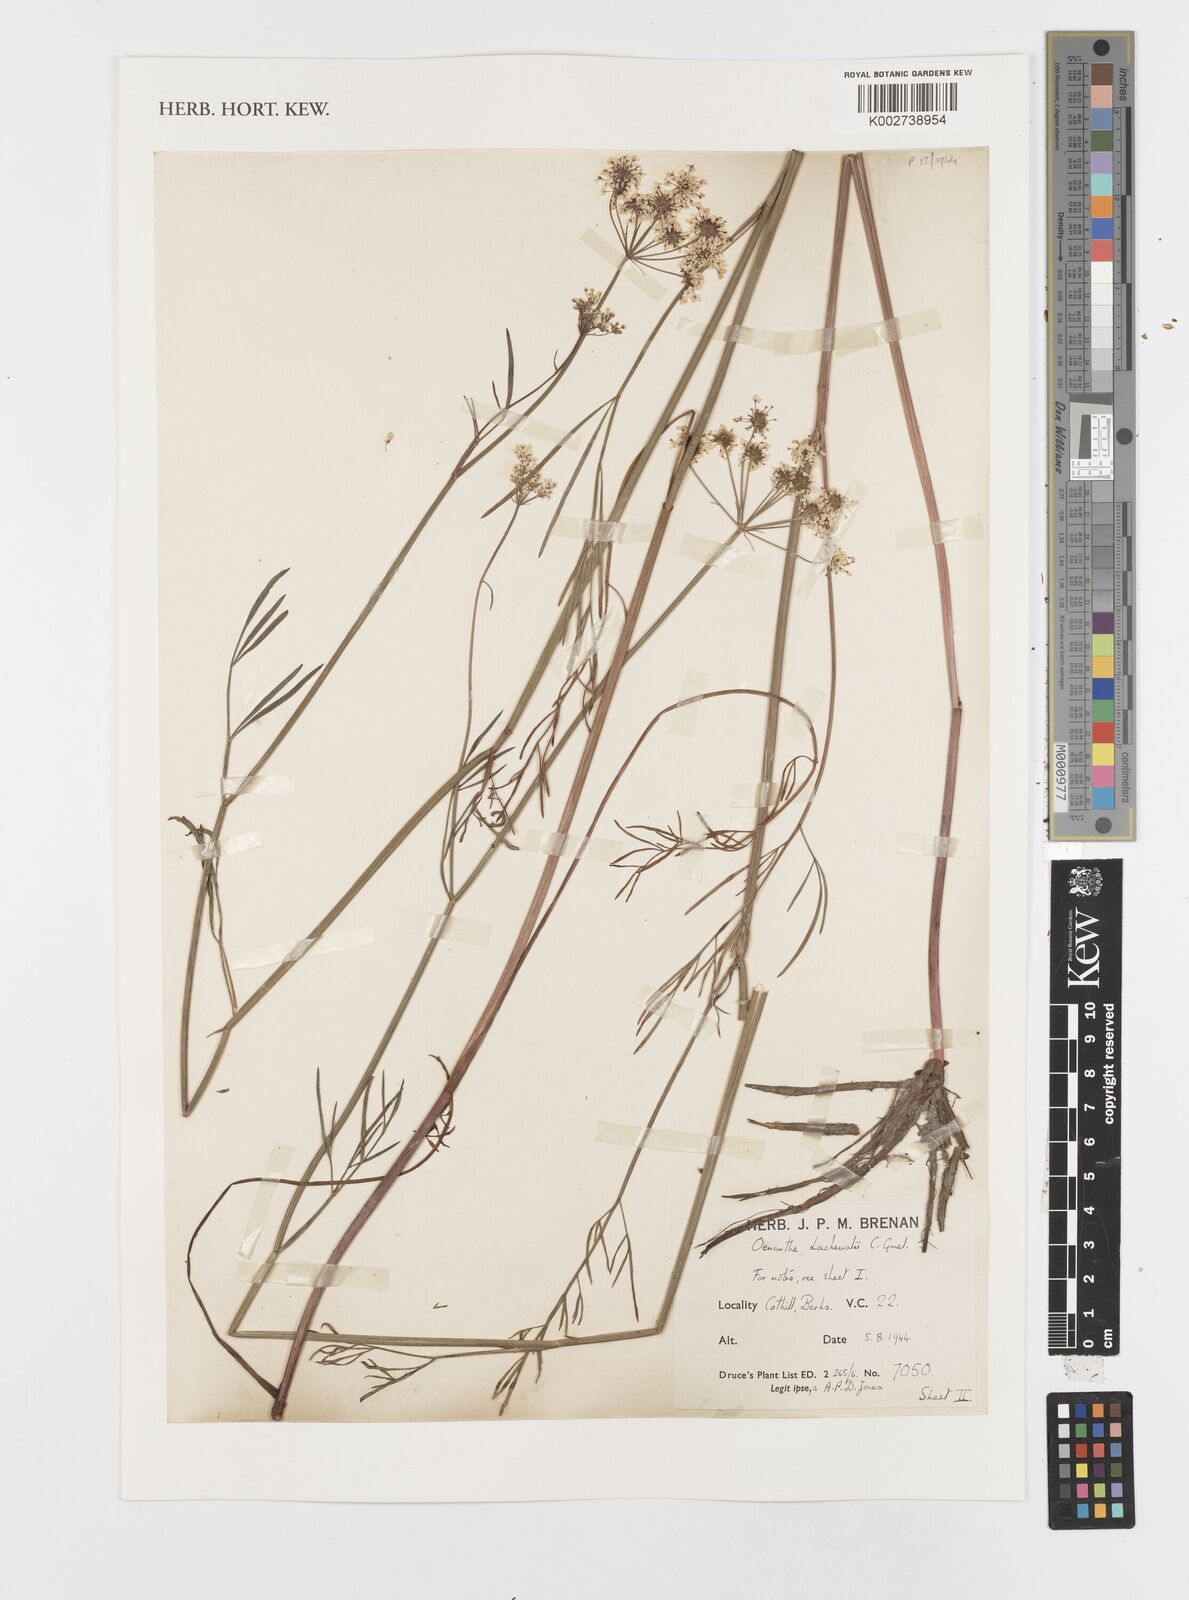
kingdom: Plantae
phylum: Tracheophyta
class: Magnoliopsida
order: Apiales
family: Apiaceae
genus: Oenanthe
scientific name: Oenanthe lachenalii
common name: Parsley water-dropwort
